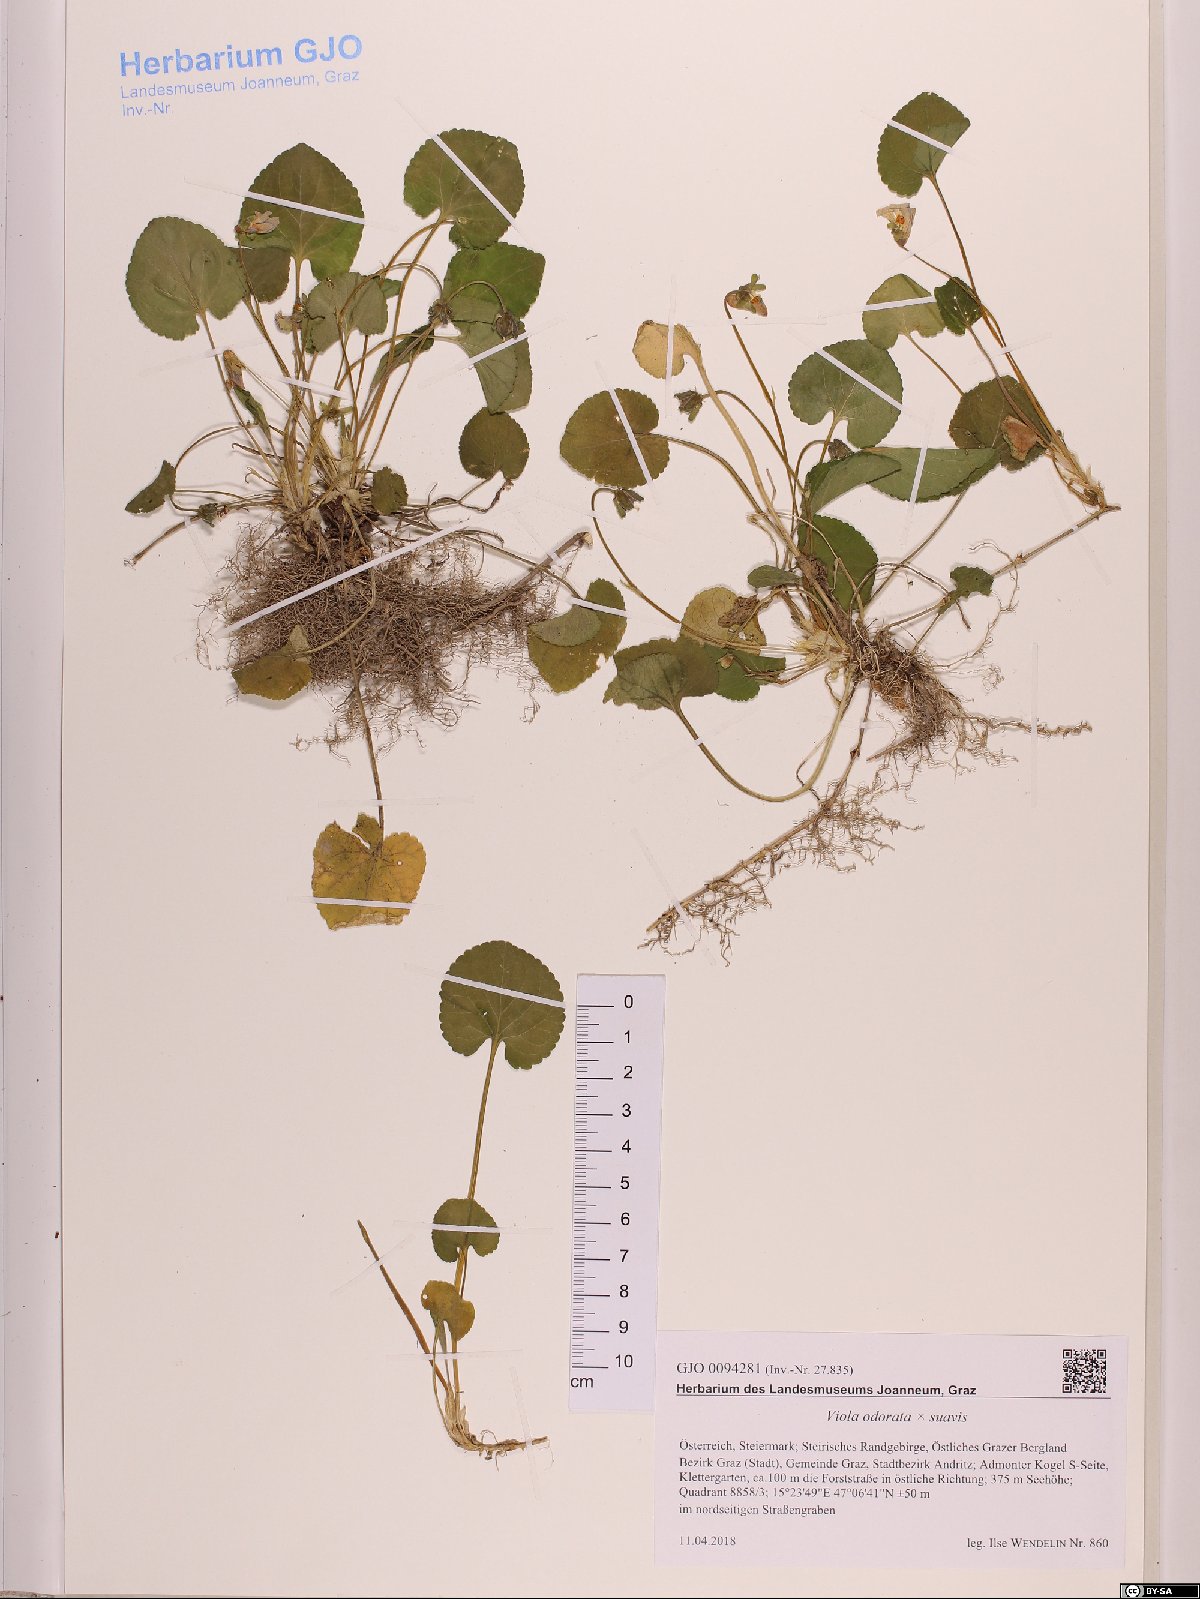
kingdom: Plantae
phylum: Tracheophyta
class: Magnoliopsida
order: Malpighiales
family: Violaceae
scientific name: Violaceae
